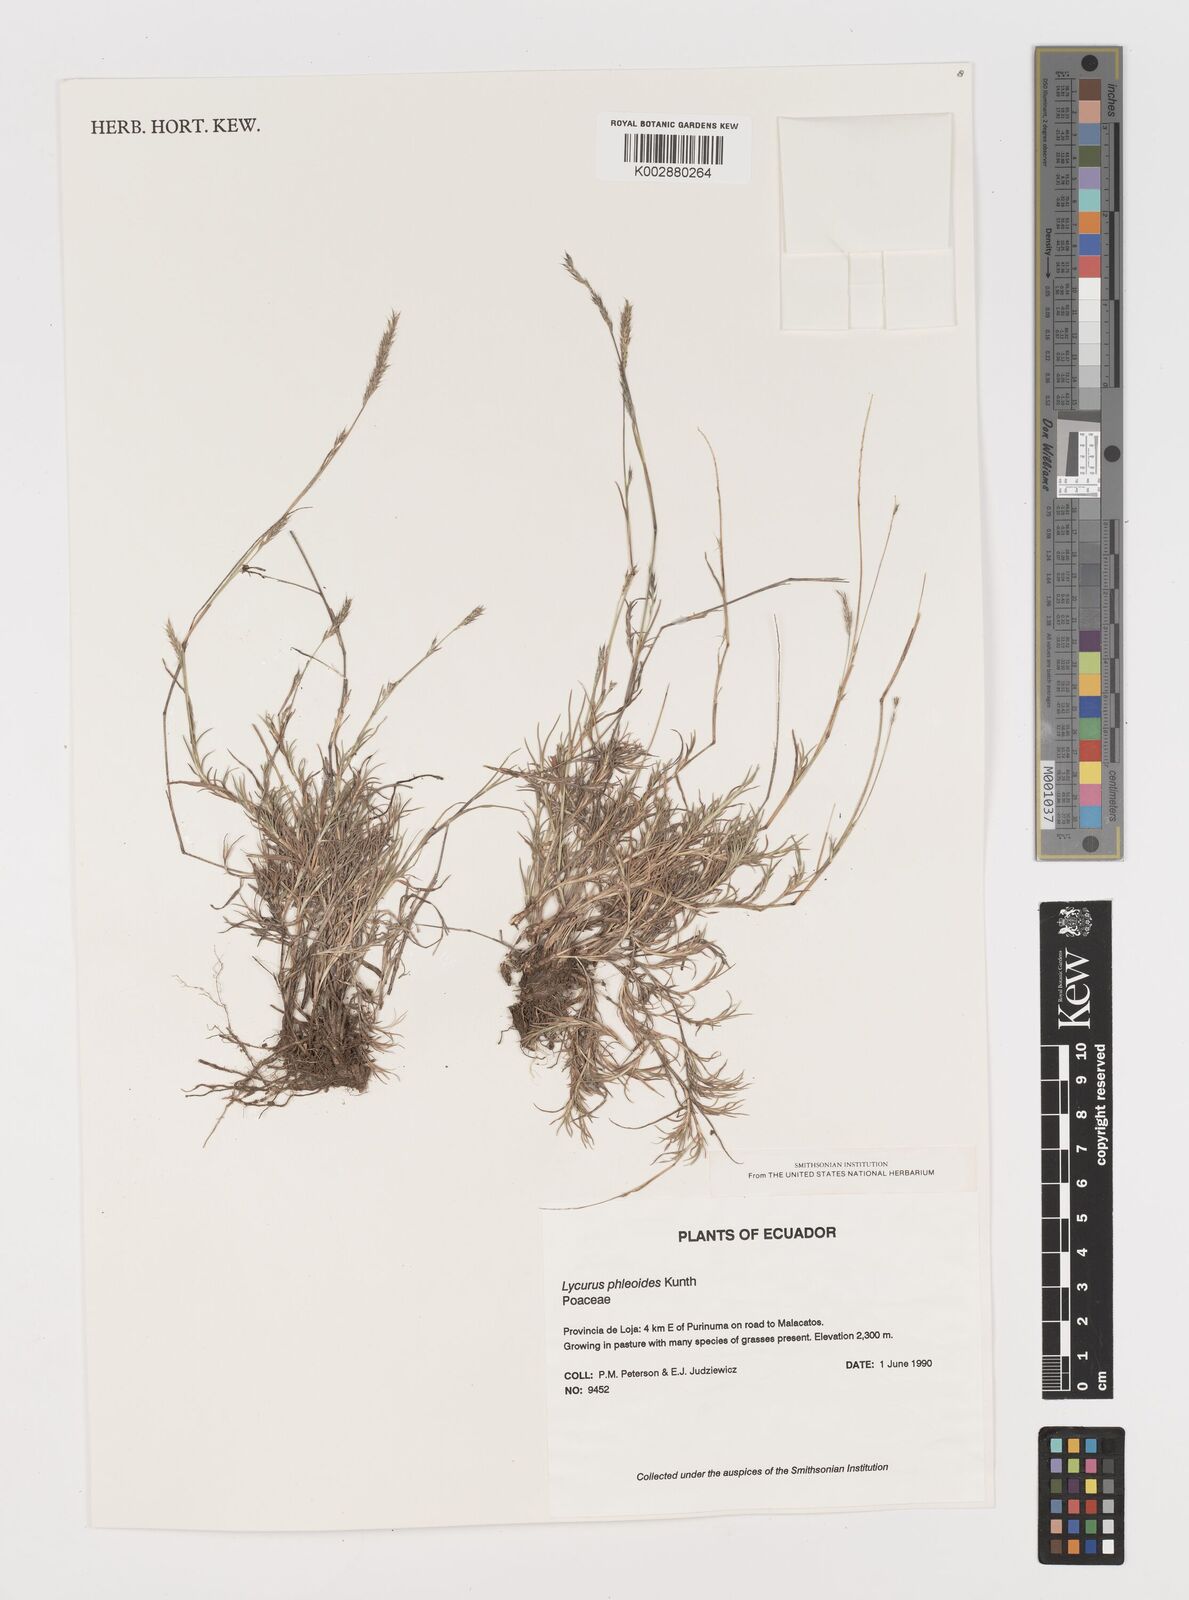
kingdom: Plantae
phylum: Tracheophyta
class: Liliopsida
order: Poales
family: Poaceae
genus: Muhlenbergia
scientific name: Muhlenbergia phalaroides
